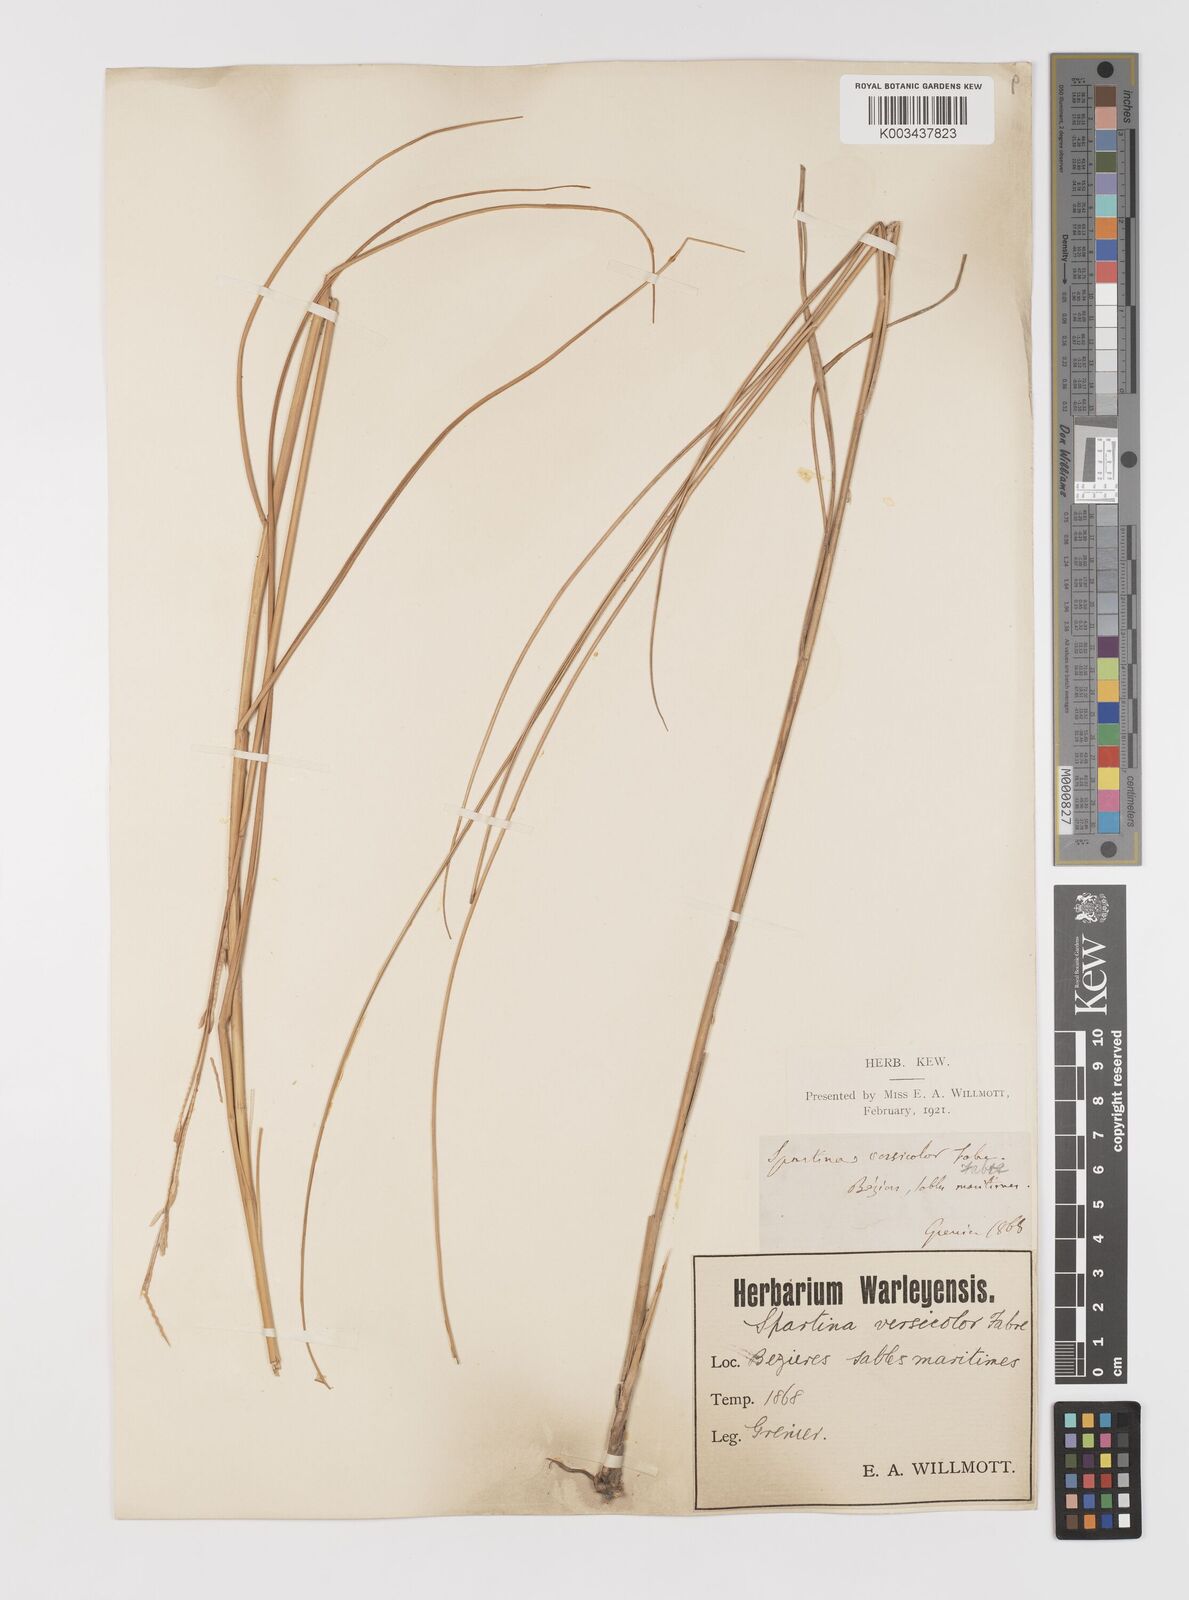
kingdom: Plantae
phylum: Tracheophyta
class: Liliopsida
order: Poales
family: Poaceae
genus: Sporobolus
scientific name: Sporobolus versicolor
